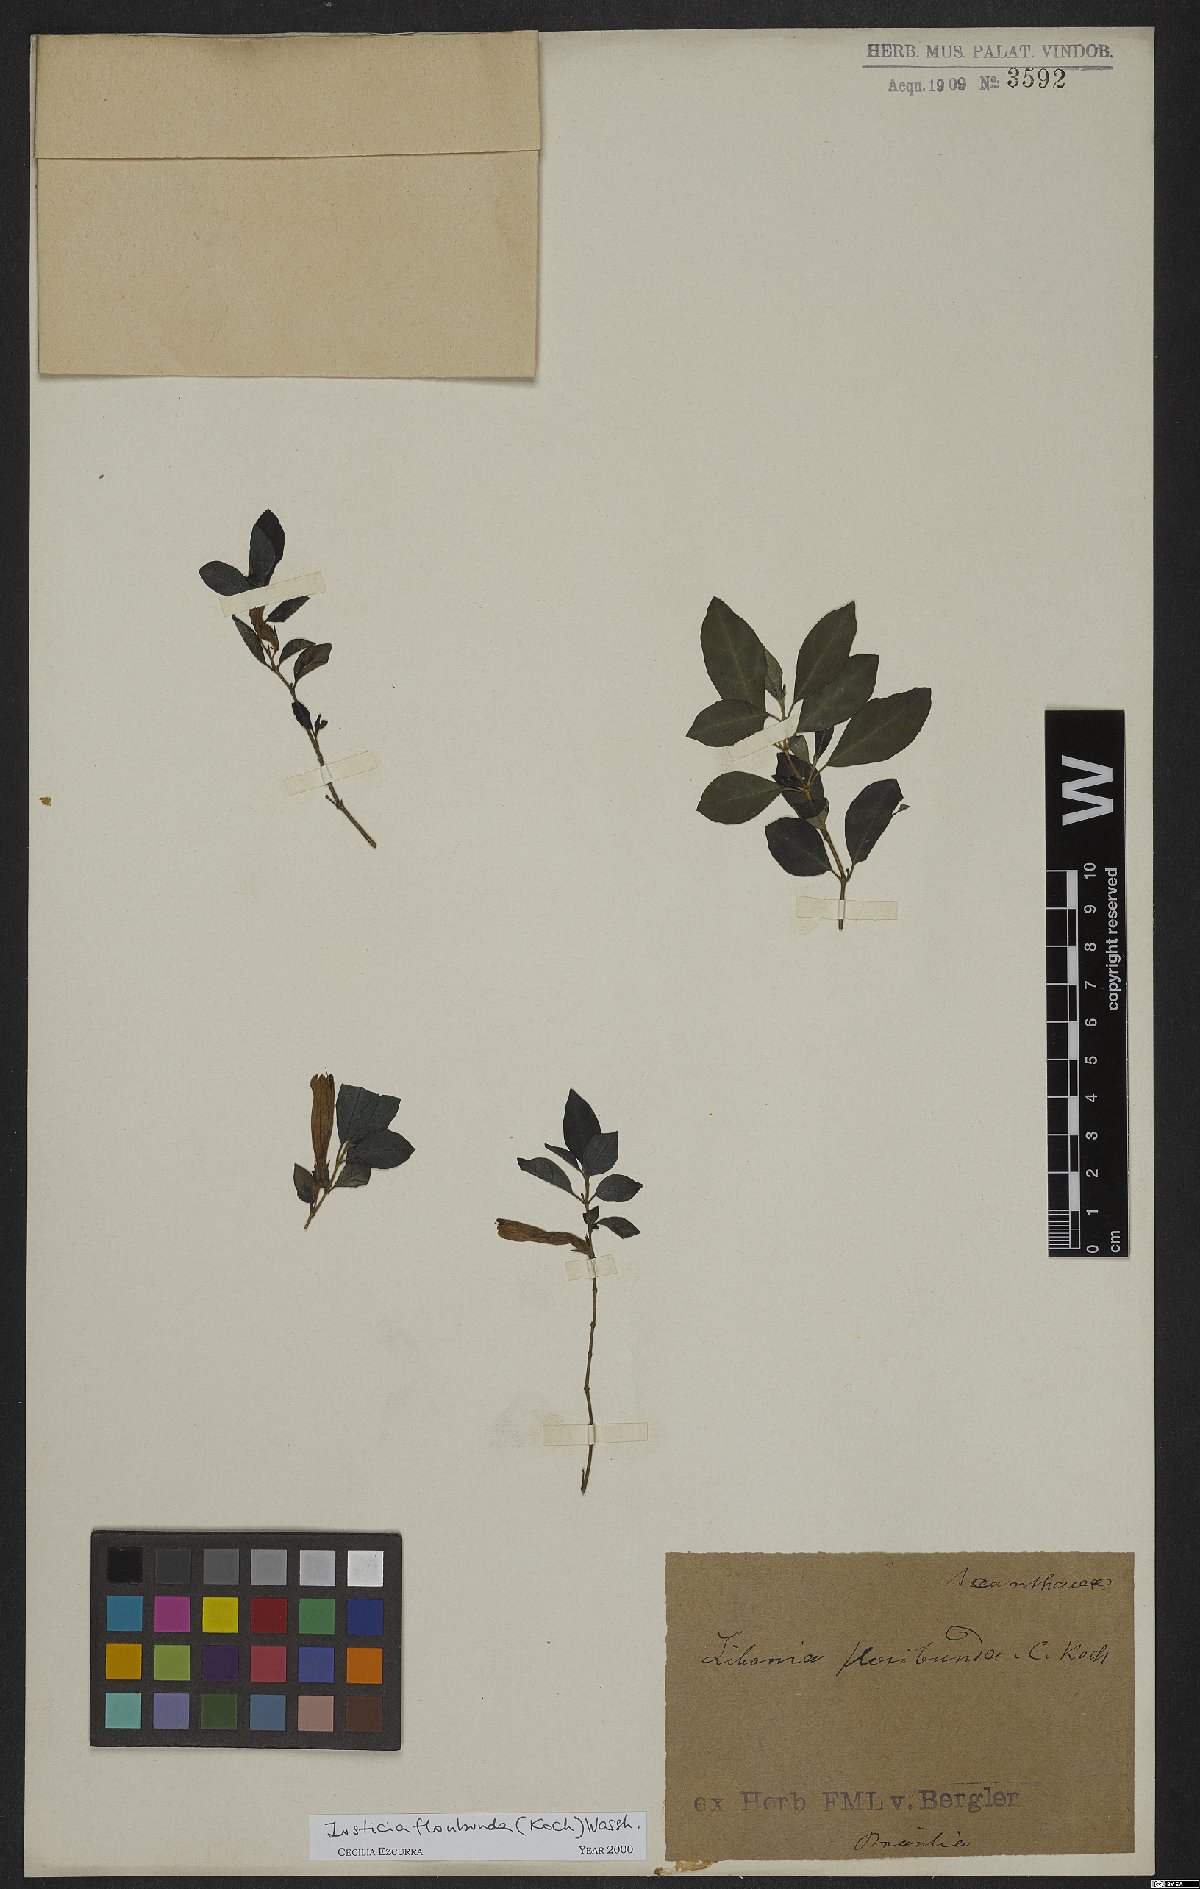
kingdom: Plantae
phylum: Tracheophyta
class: Magnoliopsida
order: Lamiales
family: Acanthaceae
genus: Justicia
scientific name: Justicia floribunda
